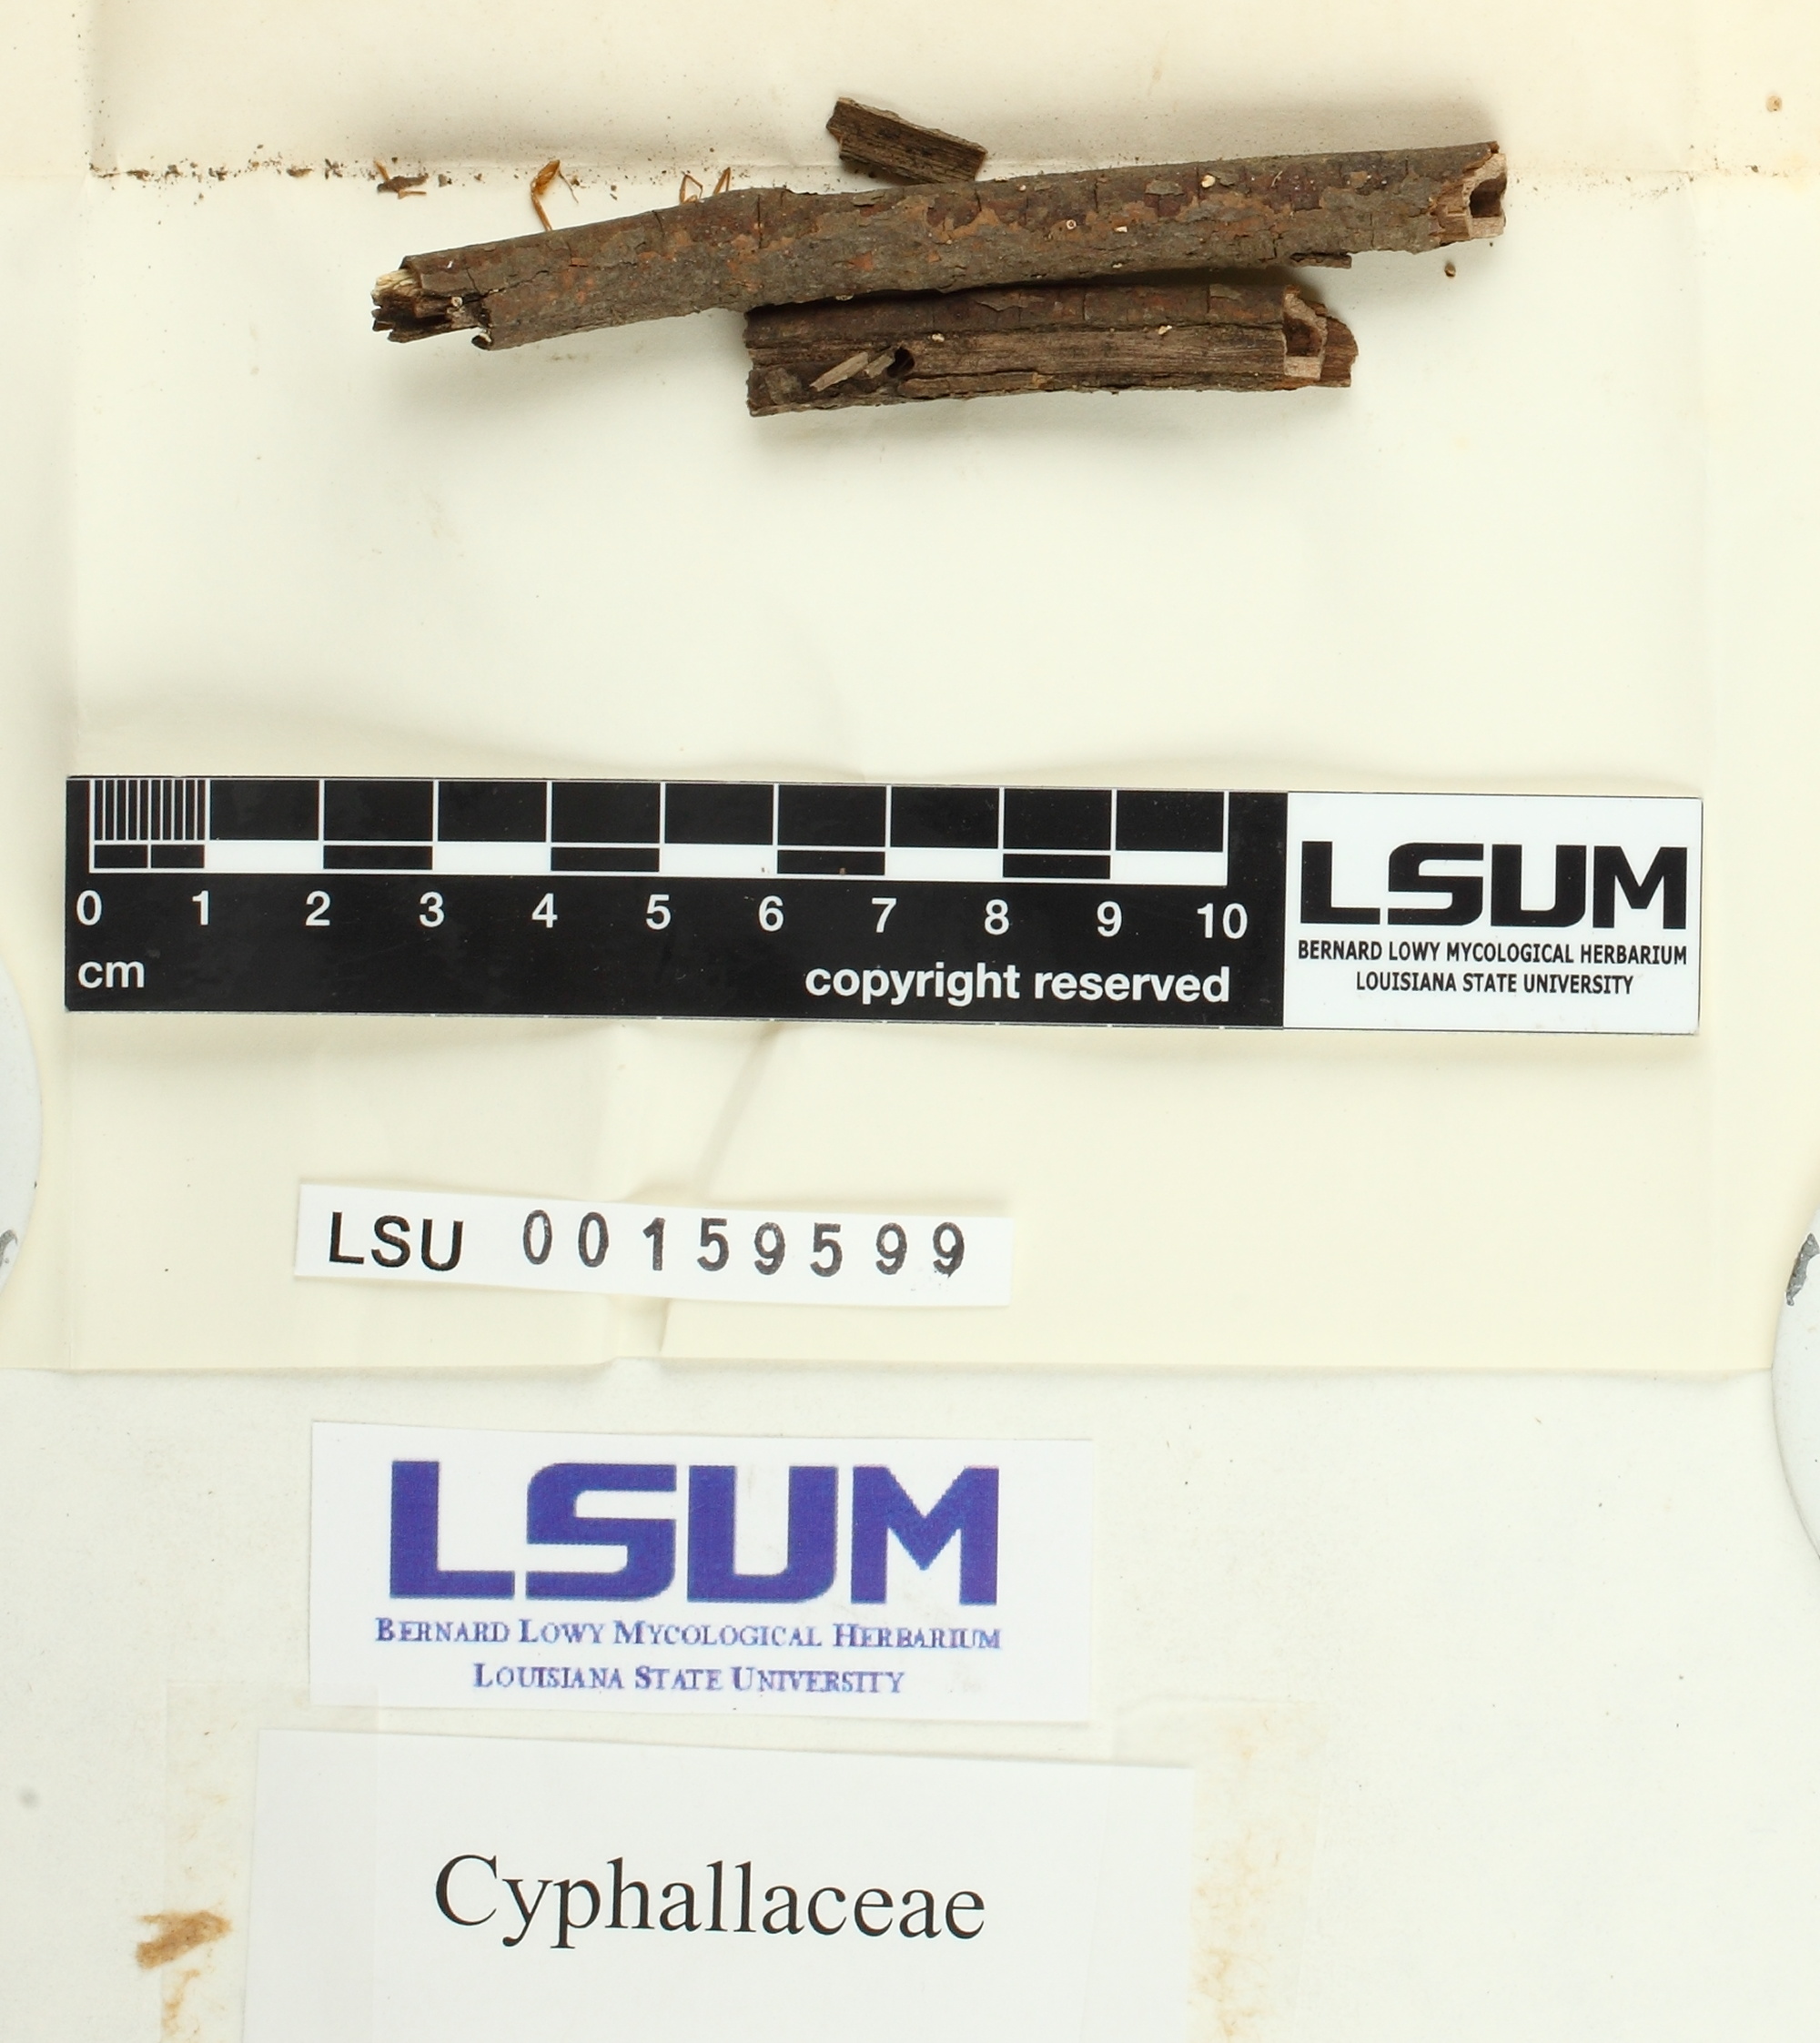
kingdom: Fungi
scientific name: Fungi
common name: Fungi
